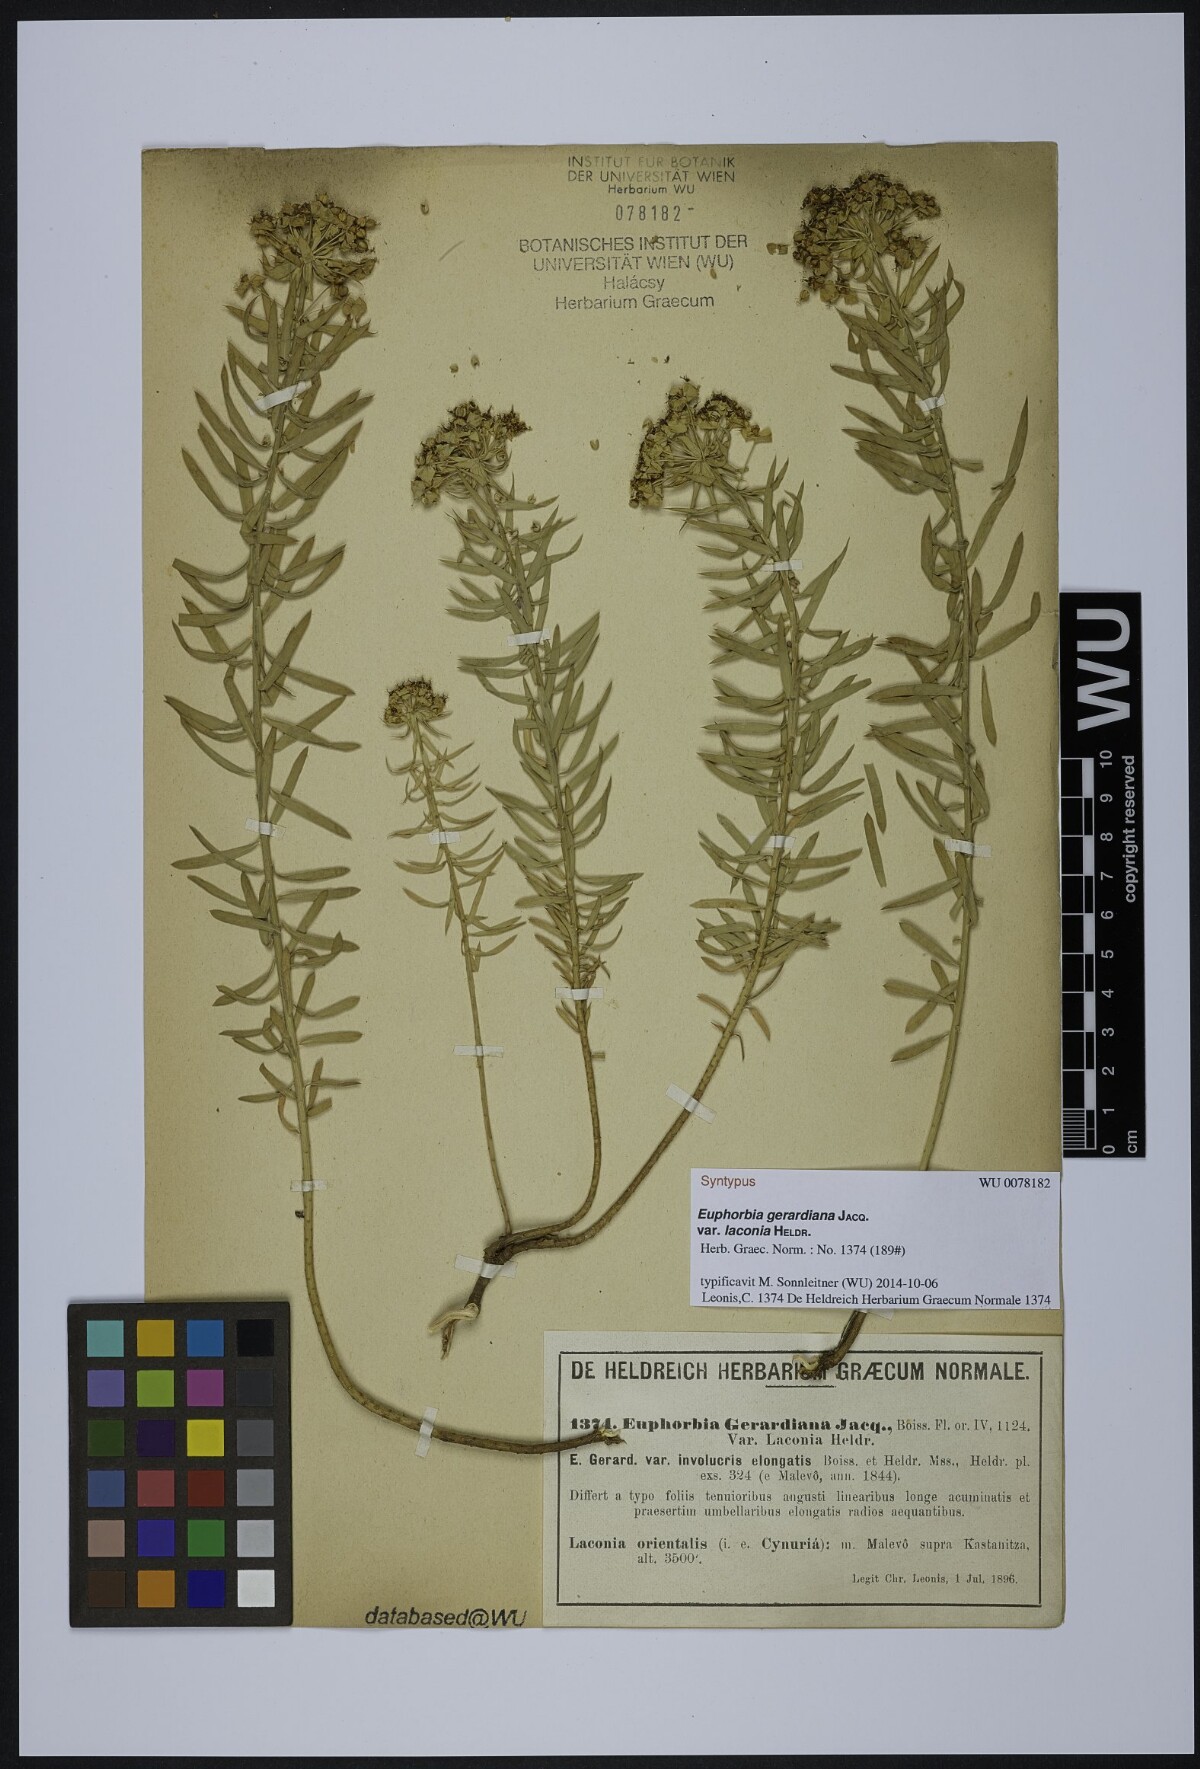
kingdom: Plantae
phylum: Tracheophyta
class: Magnoliopsida
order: Malpighiales
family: Euphorbiaceae
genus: Euphorbia
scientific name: Euphorbia seguieriana
